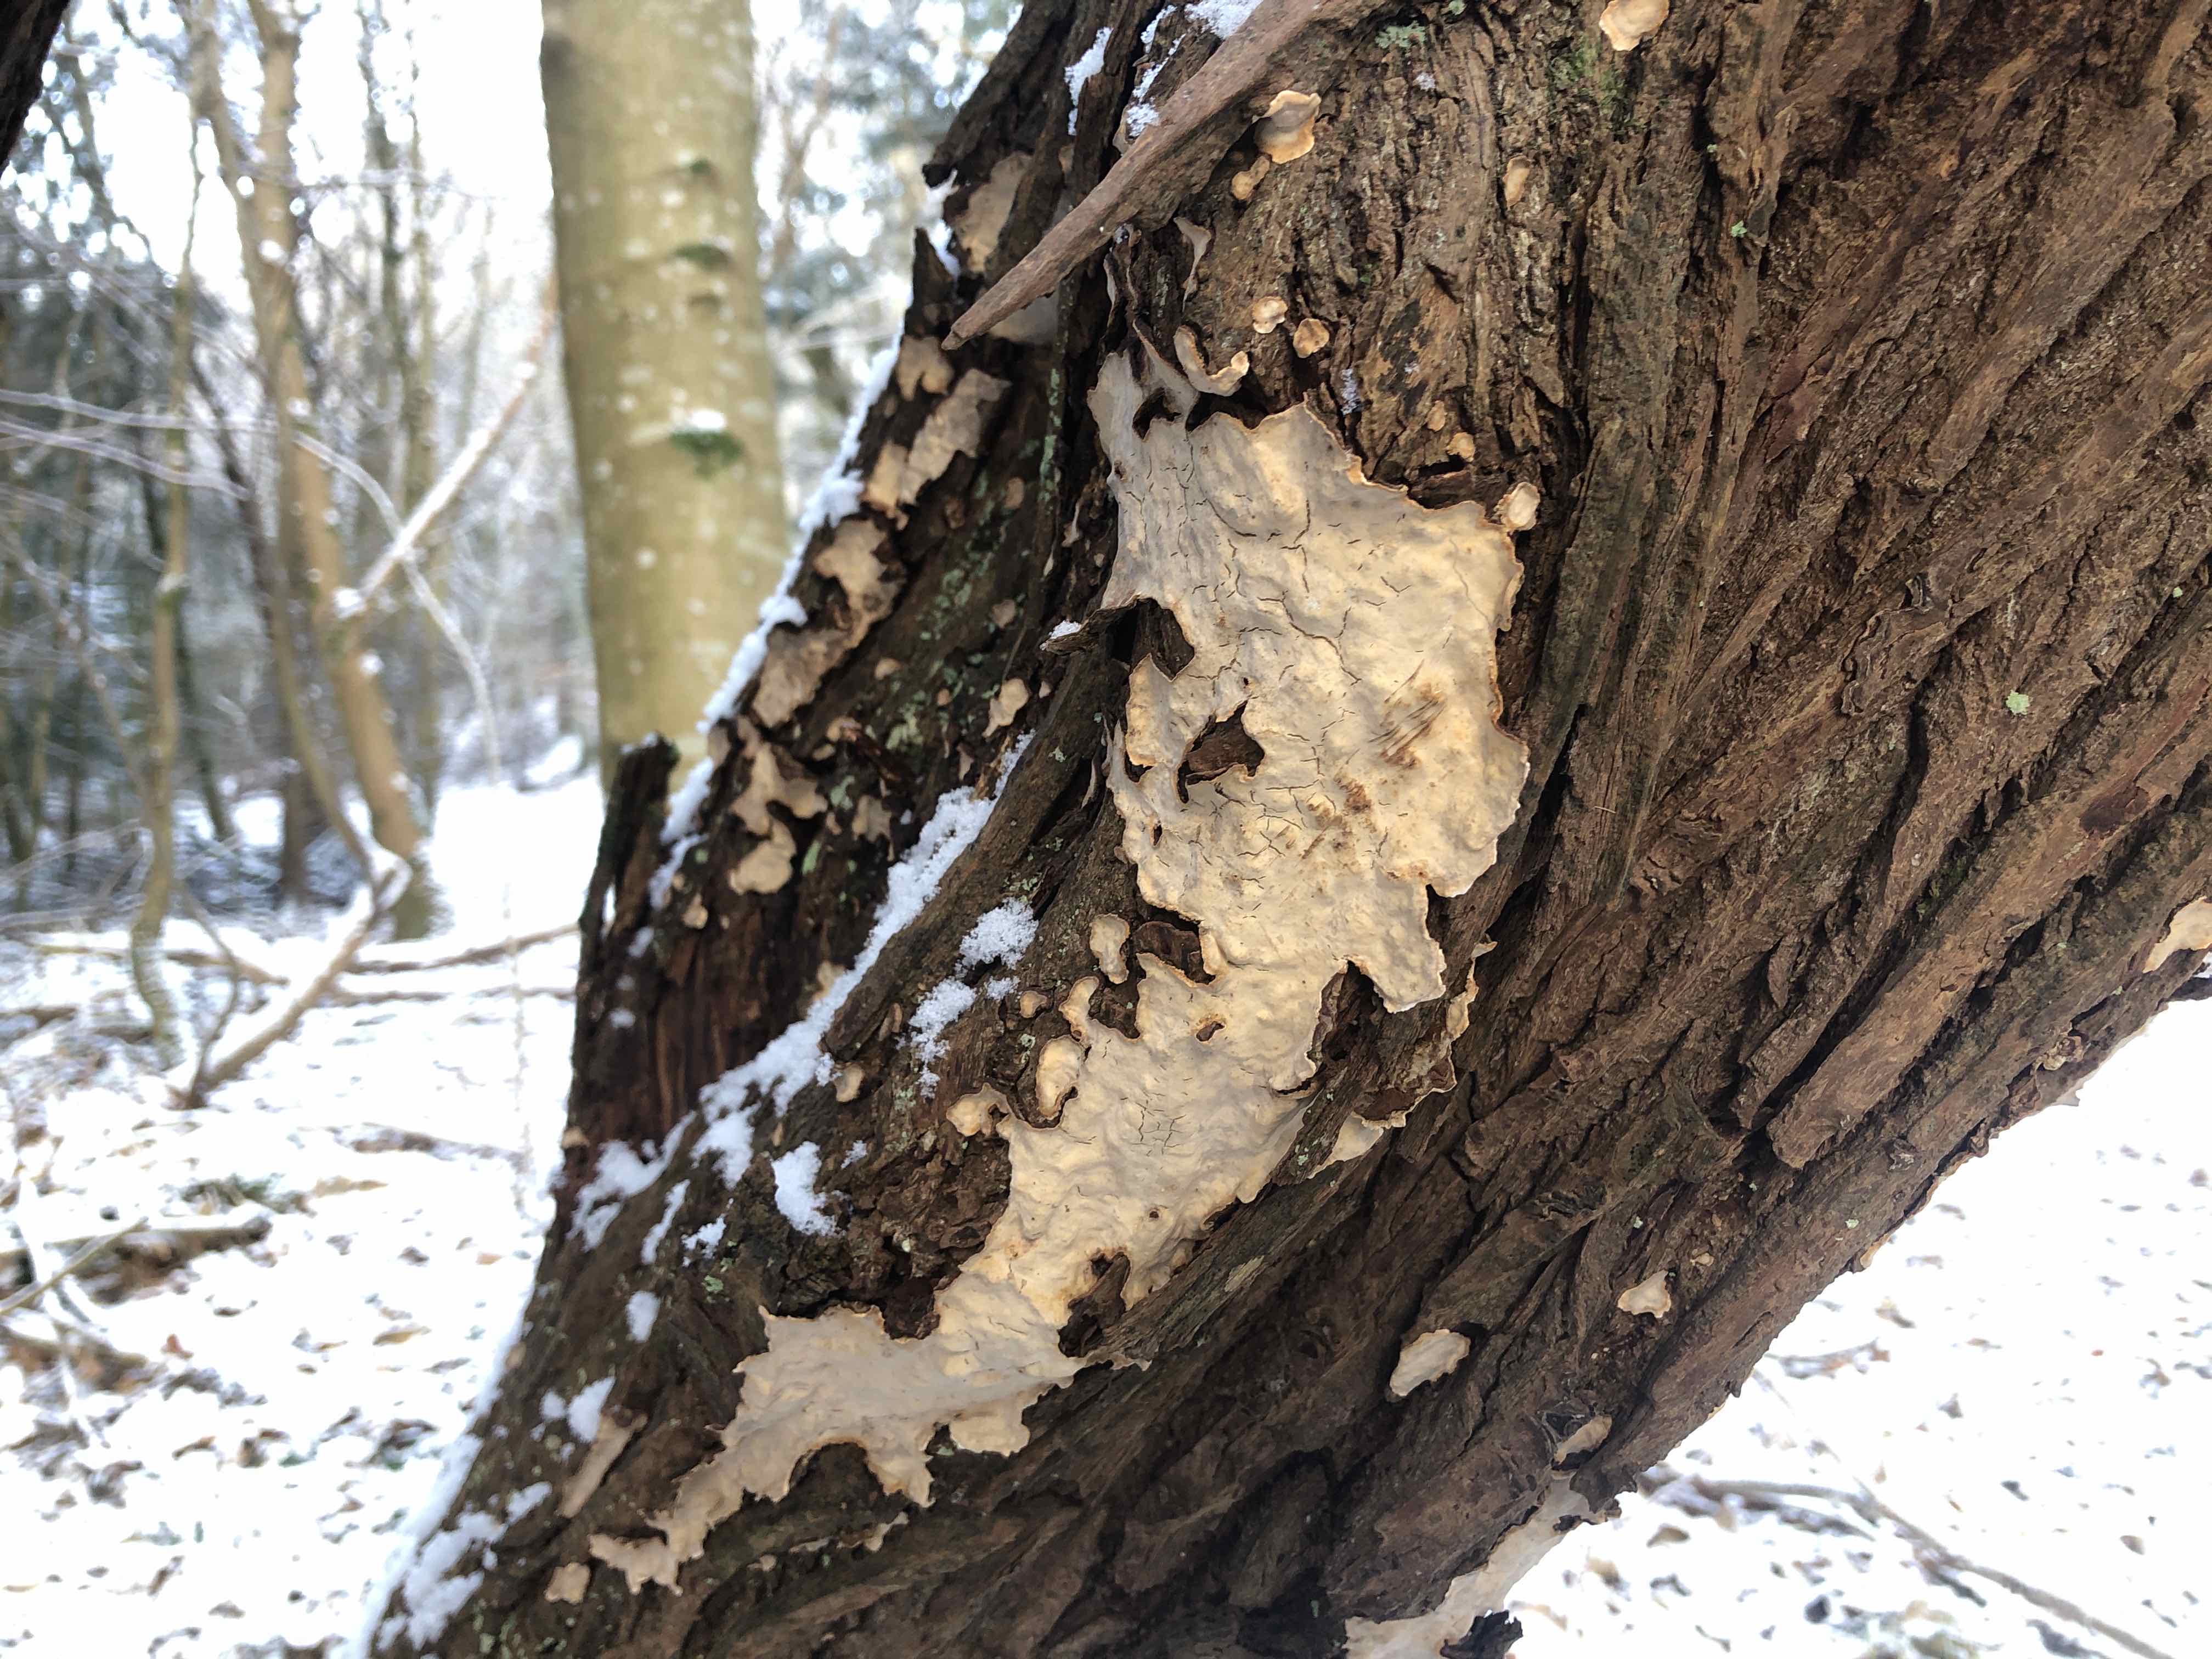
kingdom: Fungi
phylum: Basidiomycota
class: Agaricomycetes
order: Russulales
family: Stereaceae
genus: Stereum
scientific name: Stereum rugosum
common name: rynket lædersvamp
